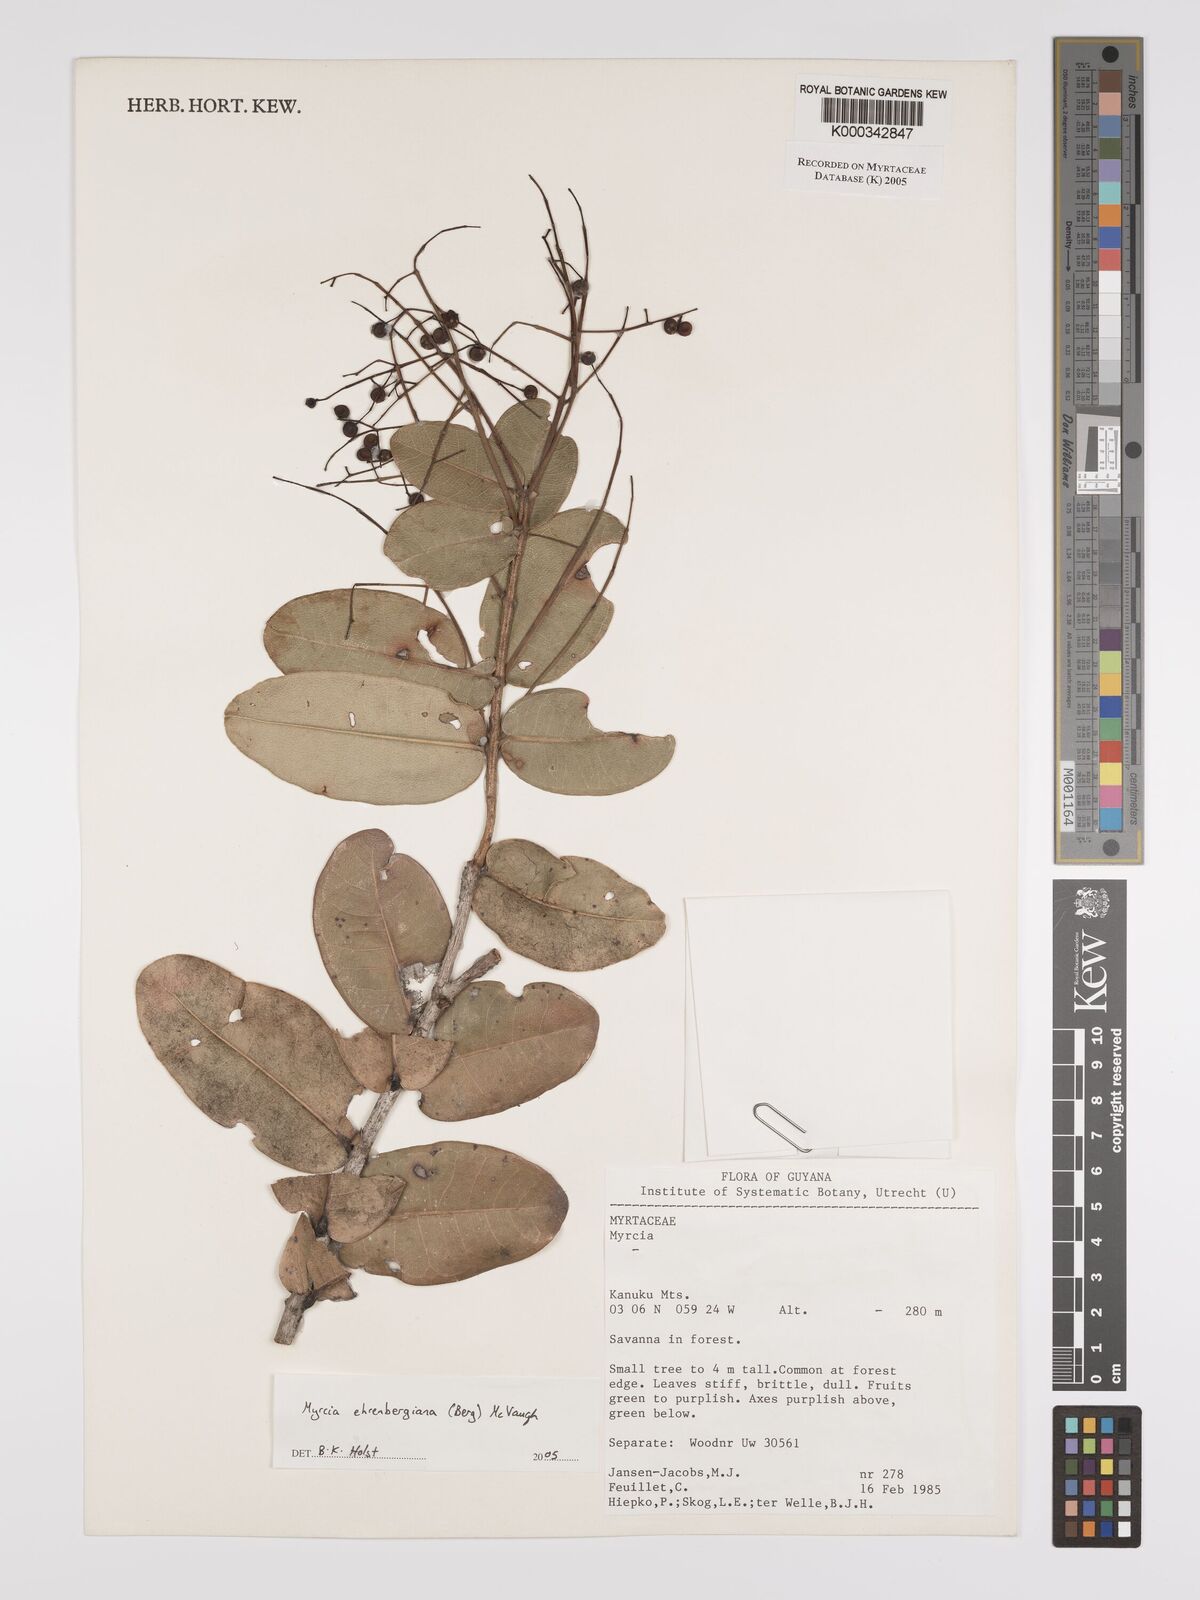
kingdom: Plantae
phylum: Tracheophyta
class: Magnoliopsida
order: Myrtales
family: Myrtaceae
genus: Myrcia
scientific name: Myrcia ehrenbergiana
